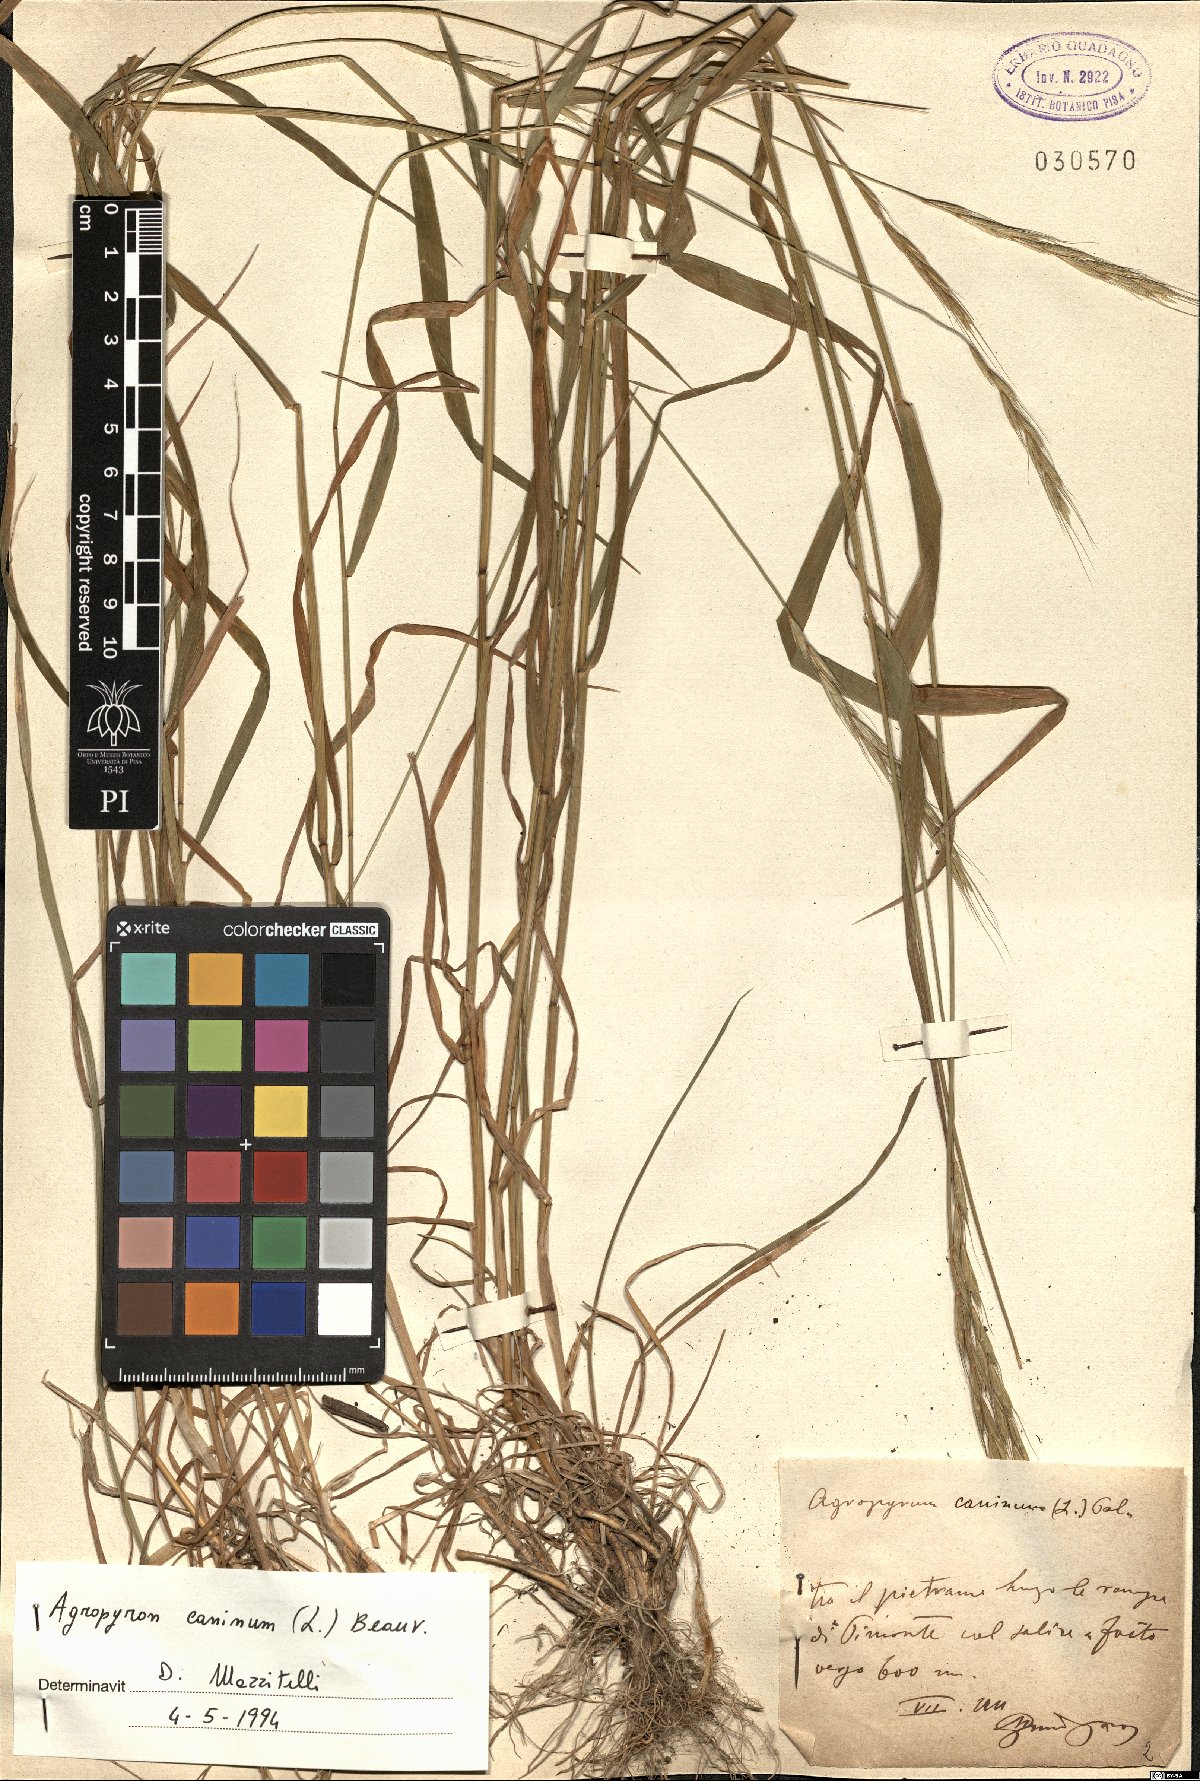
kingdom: Plantae
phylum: Tracheophyta
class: Liliopsida
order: Poales
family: Poaceae
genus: Elymus
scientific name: Elymus caninus
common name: Bearded couch
